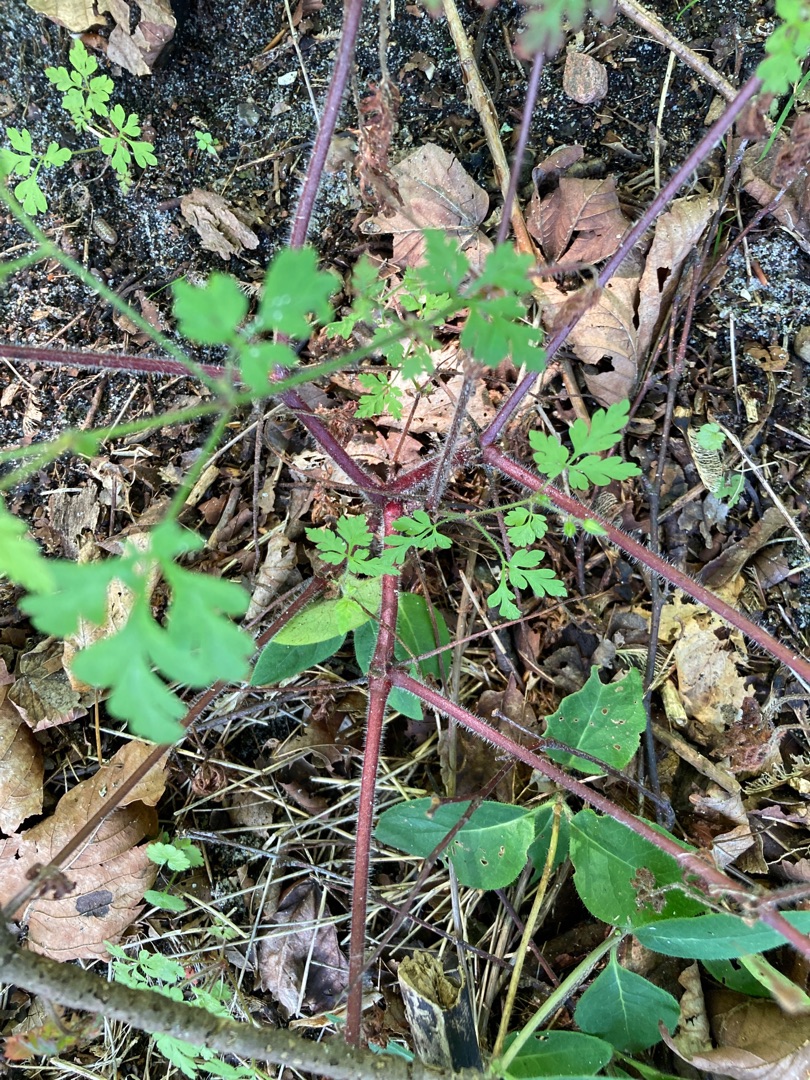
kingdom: Plantae
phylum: Tracheophyta
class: Magnoliopsida
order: Geraniales
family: Geraniaceae
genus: Geranium
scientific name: Geranium robertianum
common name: Stinkende storkenæb
